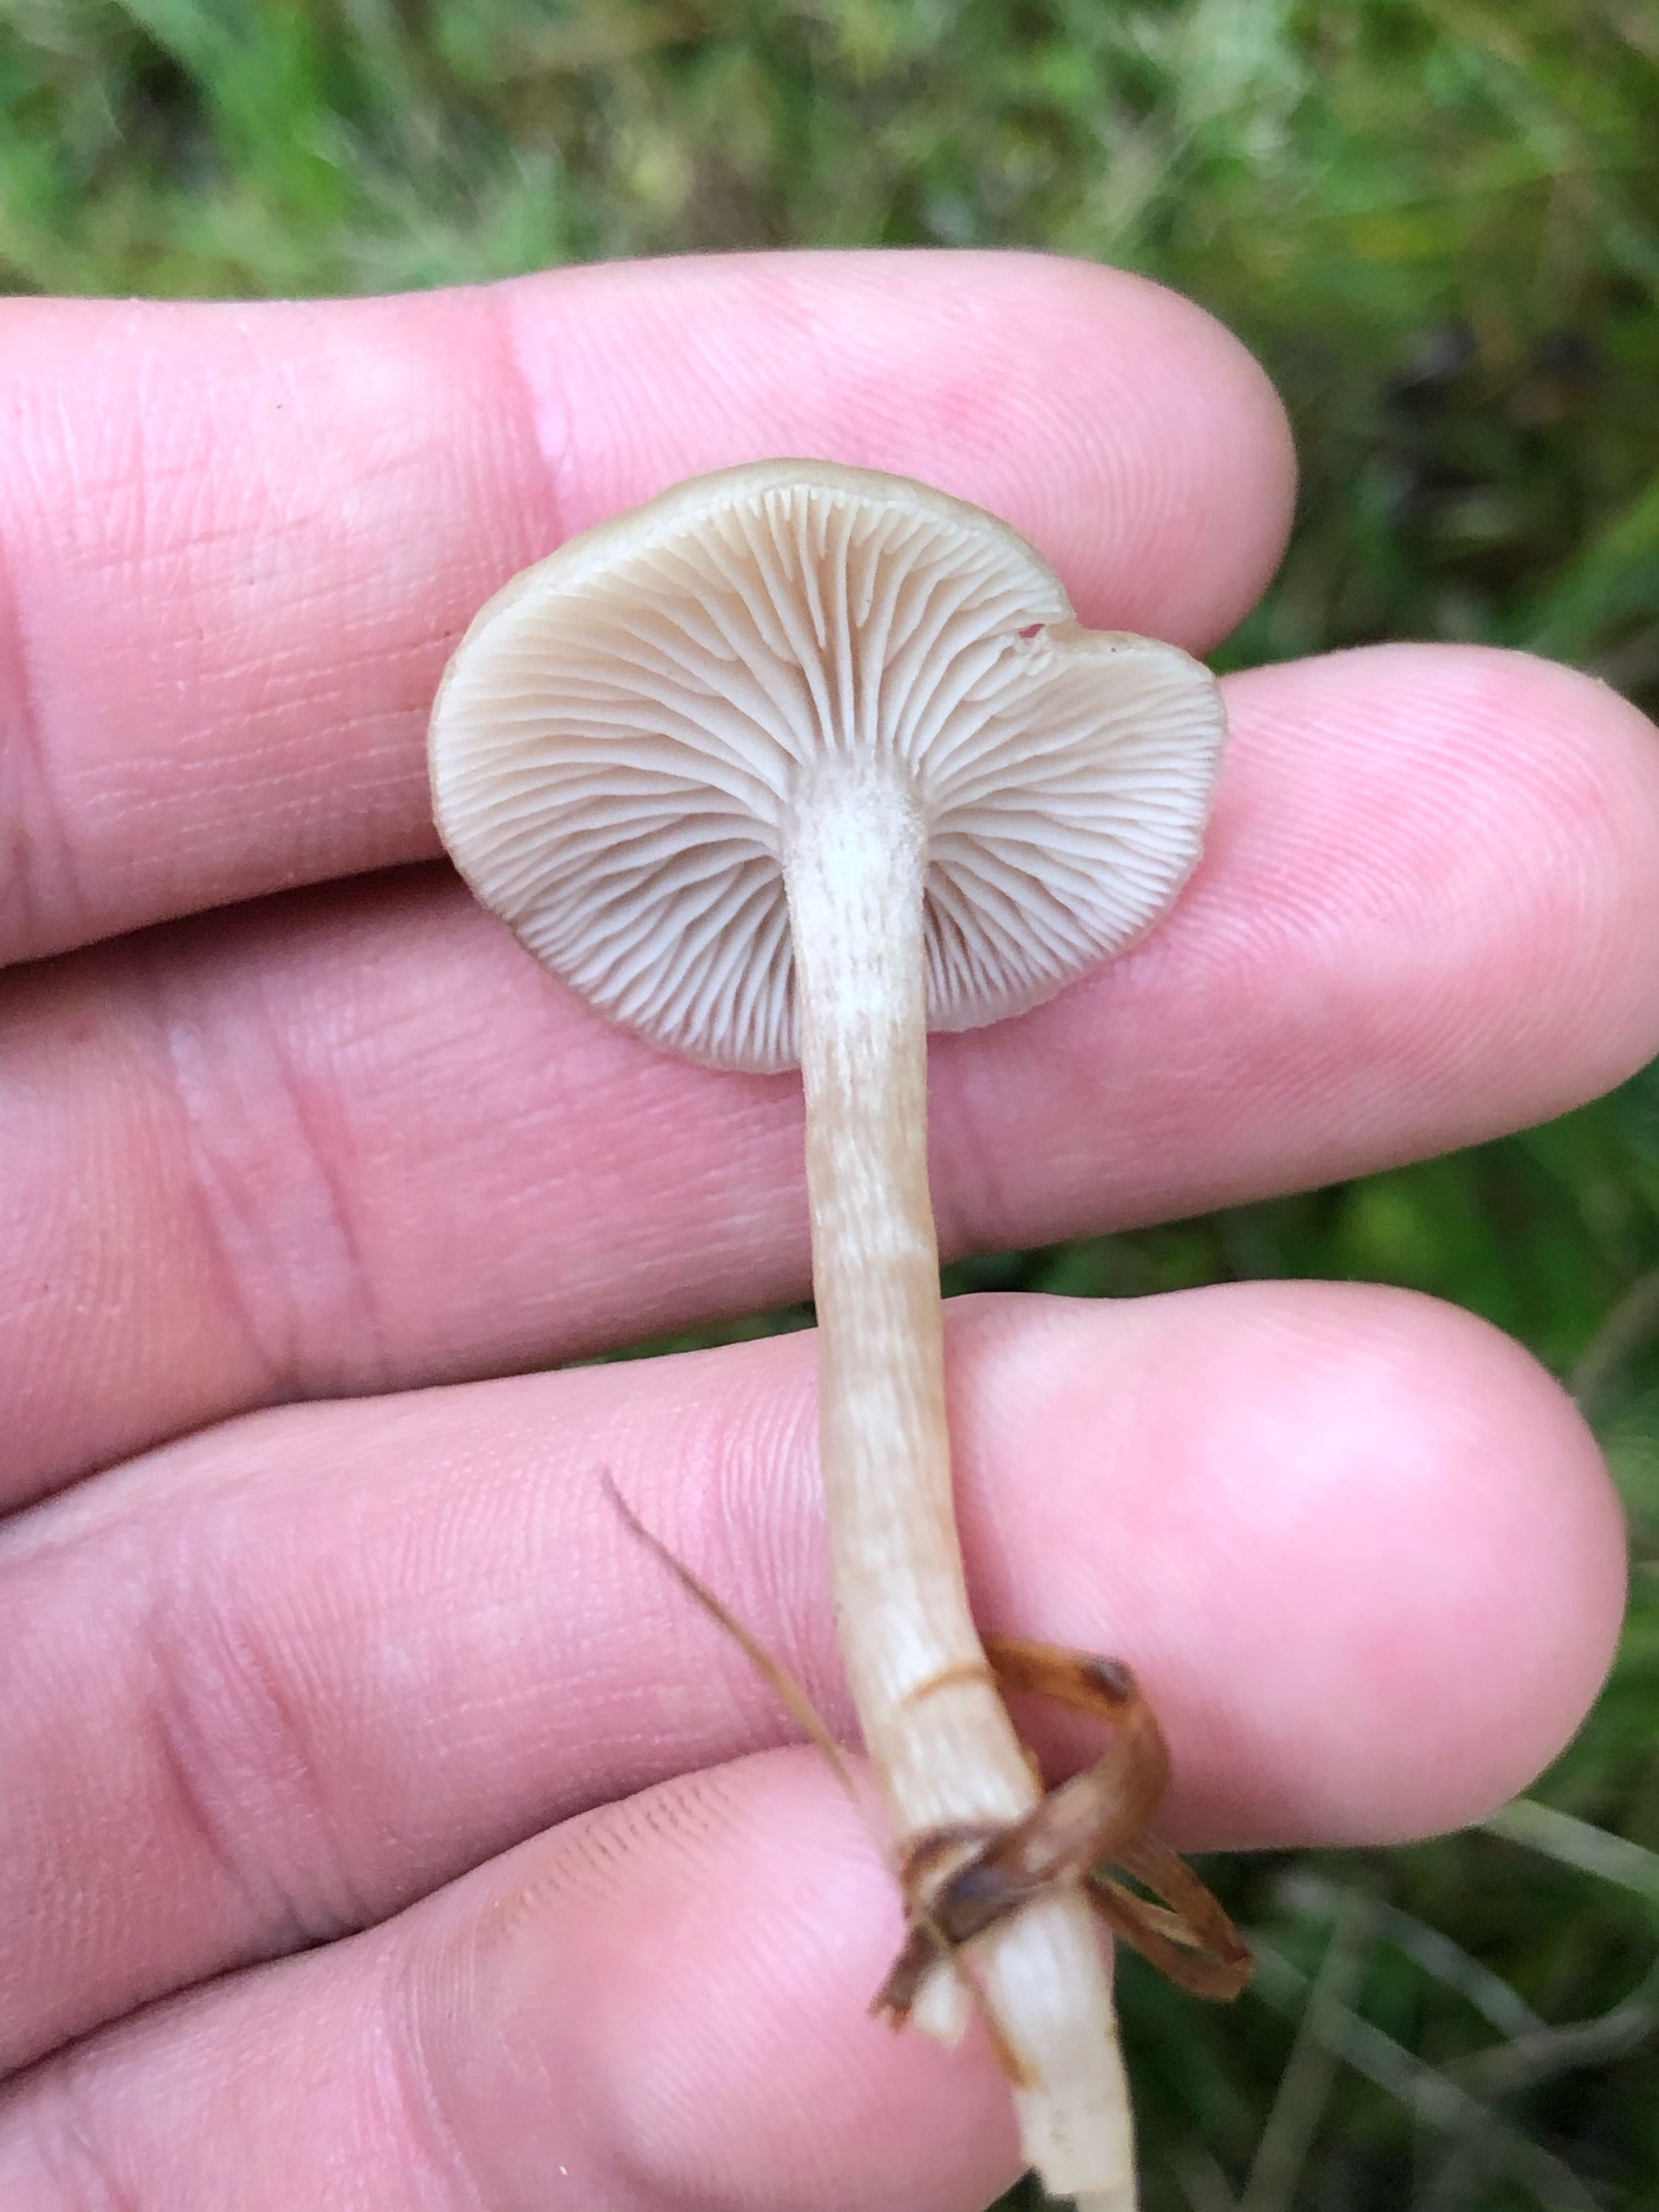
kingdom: Fungi
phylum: Basidiomycota
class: Agaricomycetes
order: Agaricales
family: Tricholomataceae
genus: Clitocybe
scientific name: Clitocybe fragrans
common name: vellugtende tragthat
